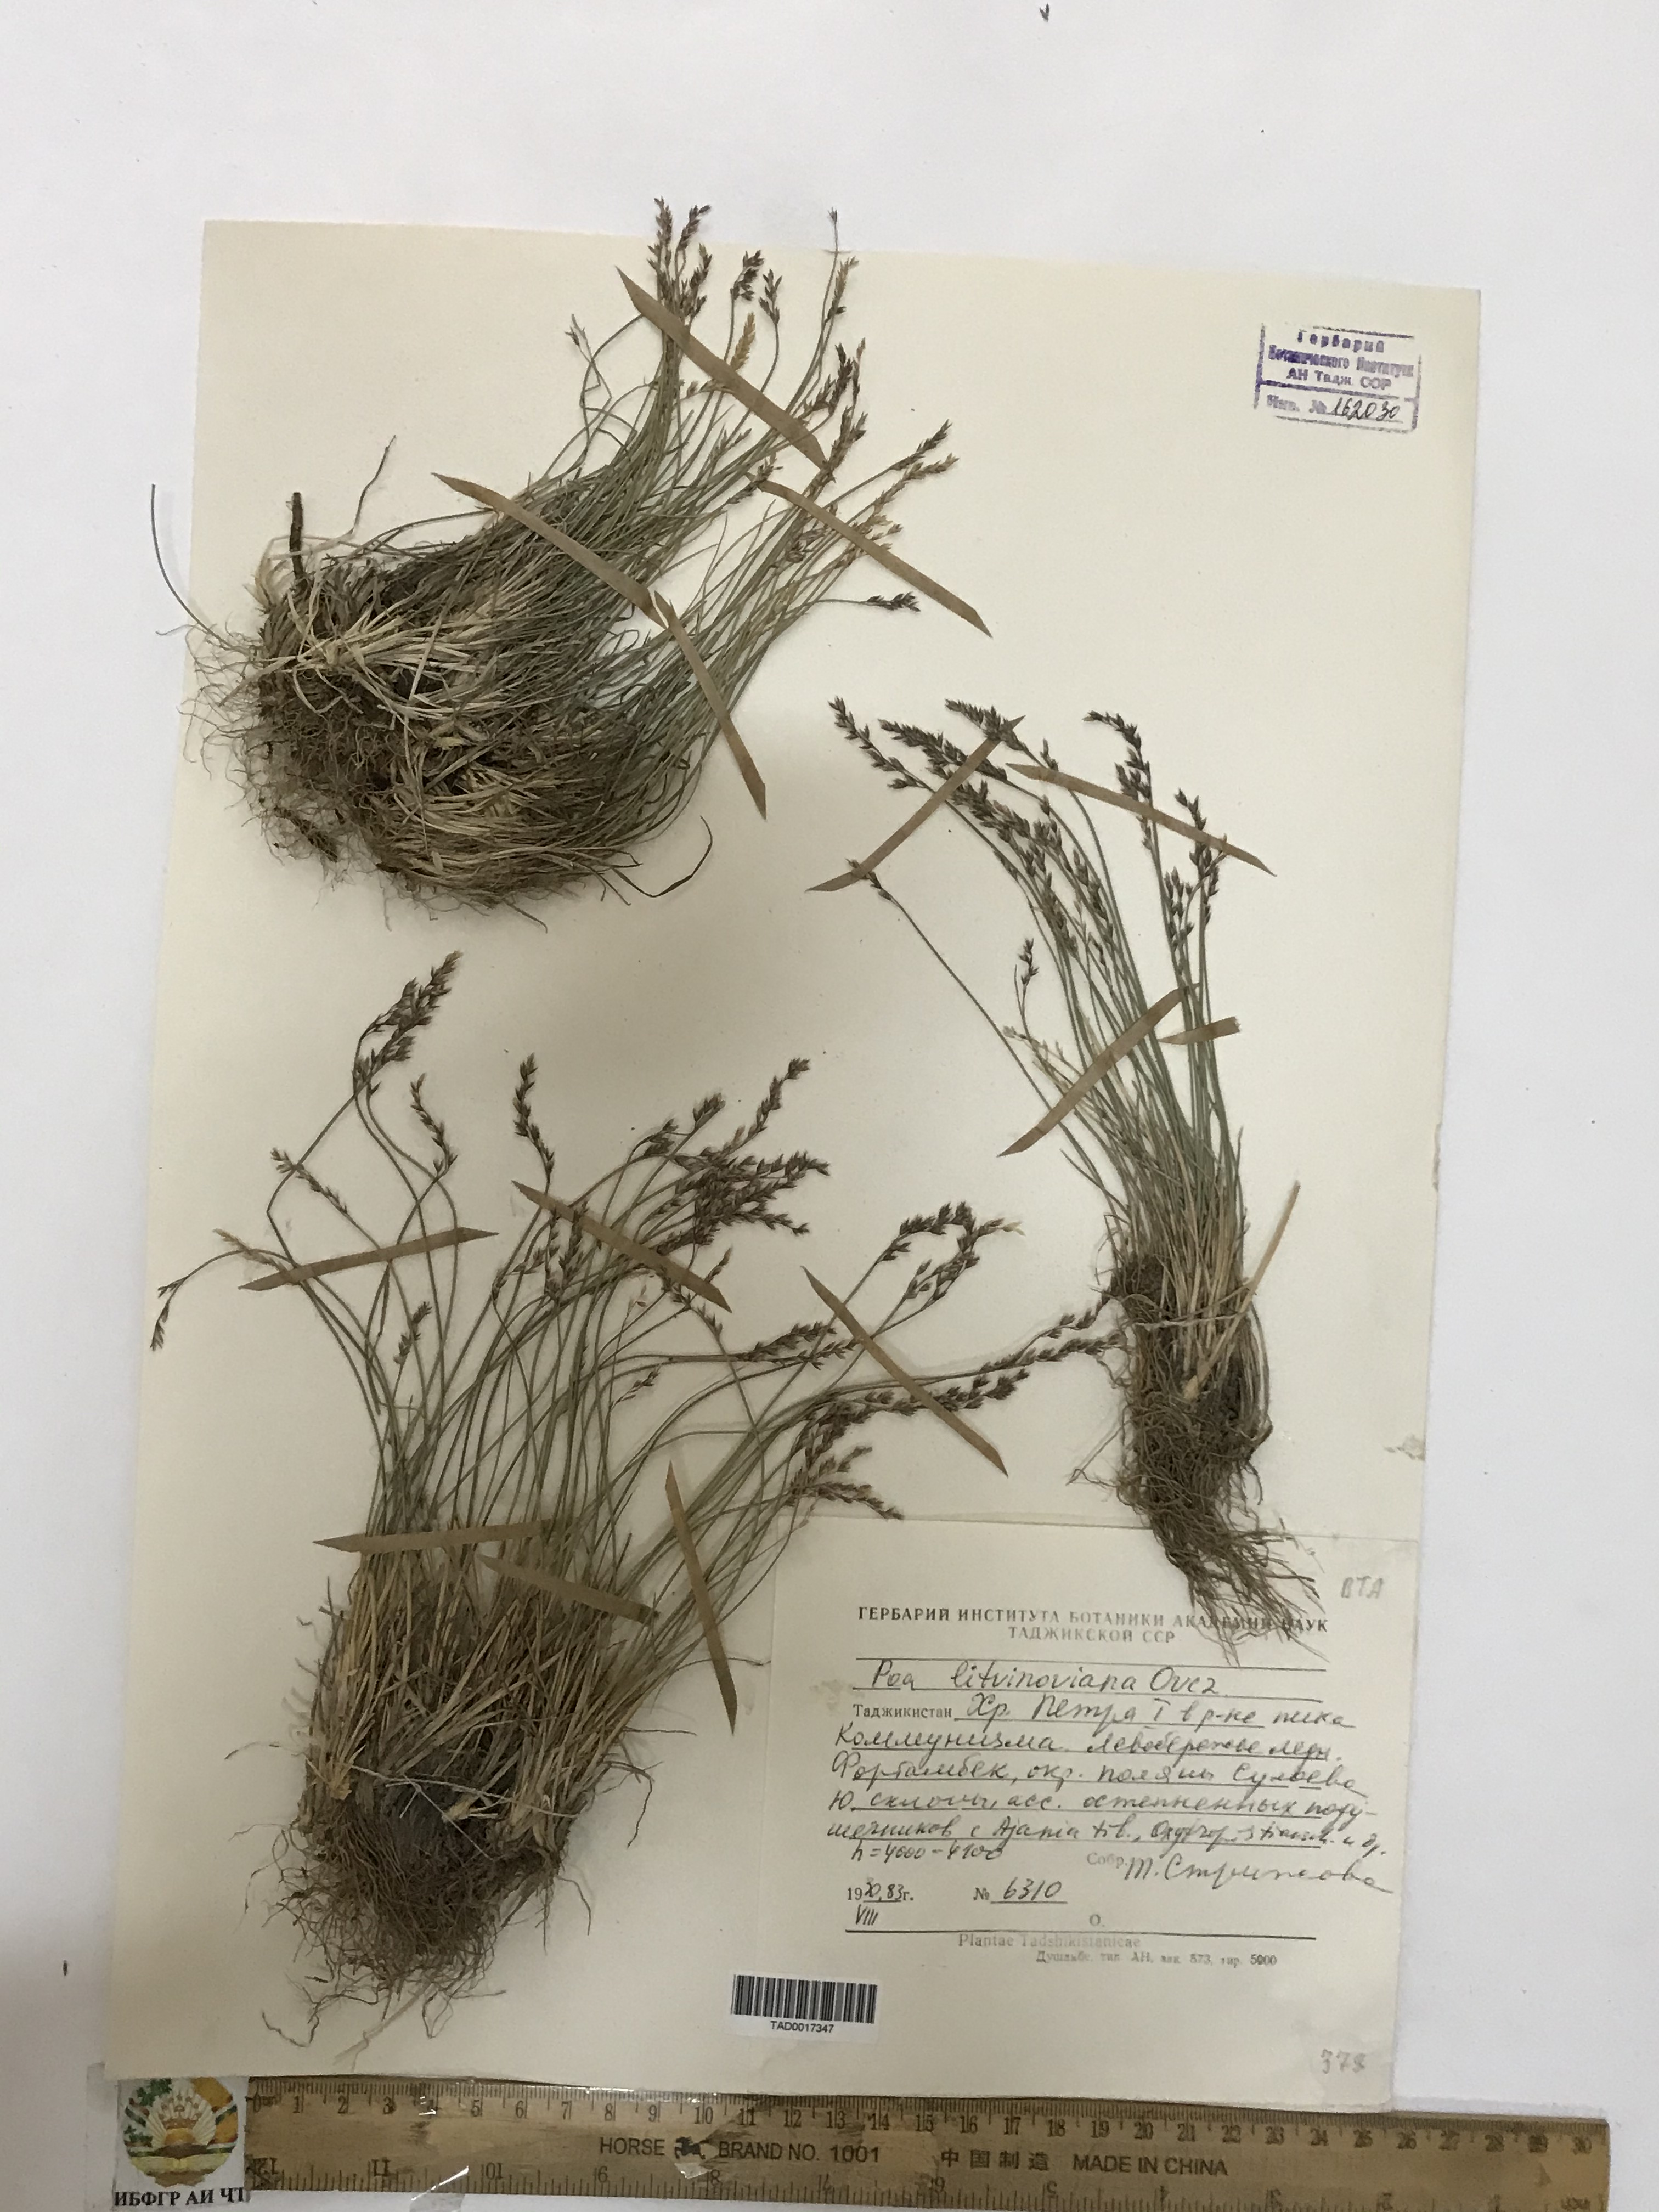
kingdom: Plantae
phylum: Tracheophyta
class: Liliopsida
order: Poales
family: Poaceae
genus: Poa
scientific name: Poa glauca
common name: Glaucous bluegrass
